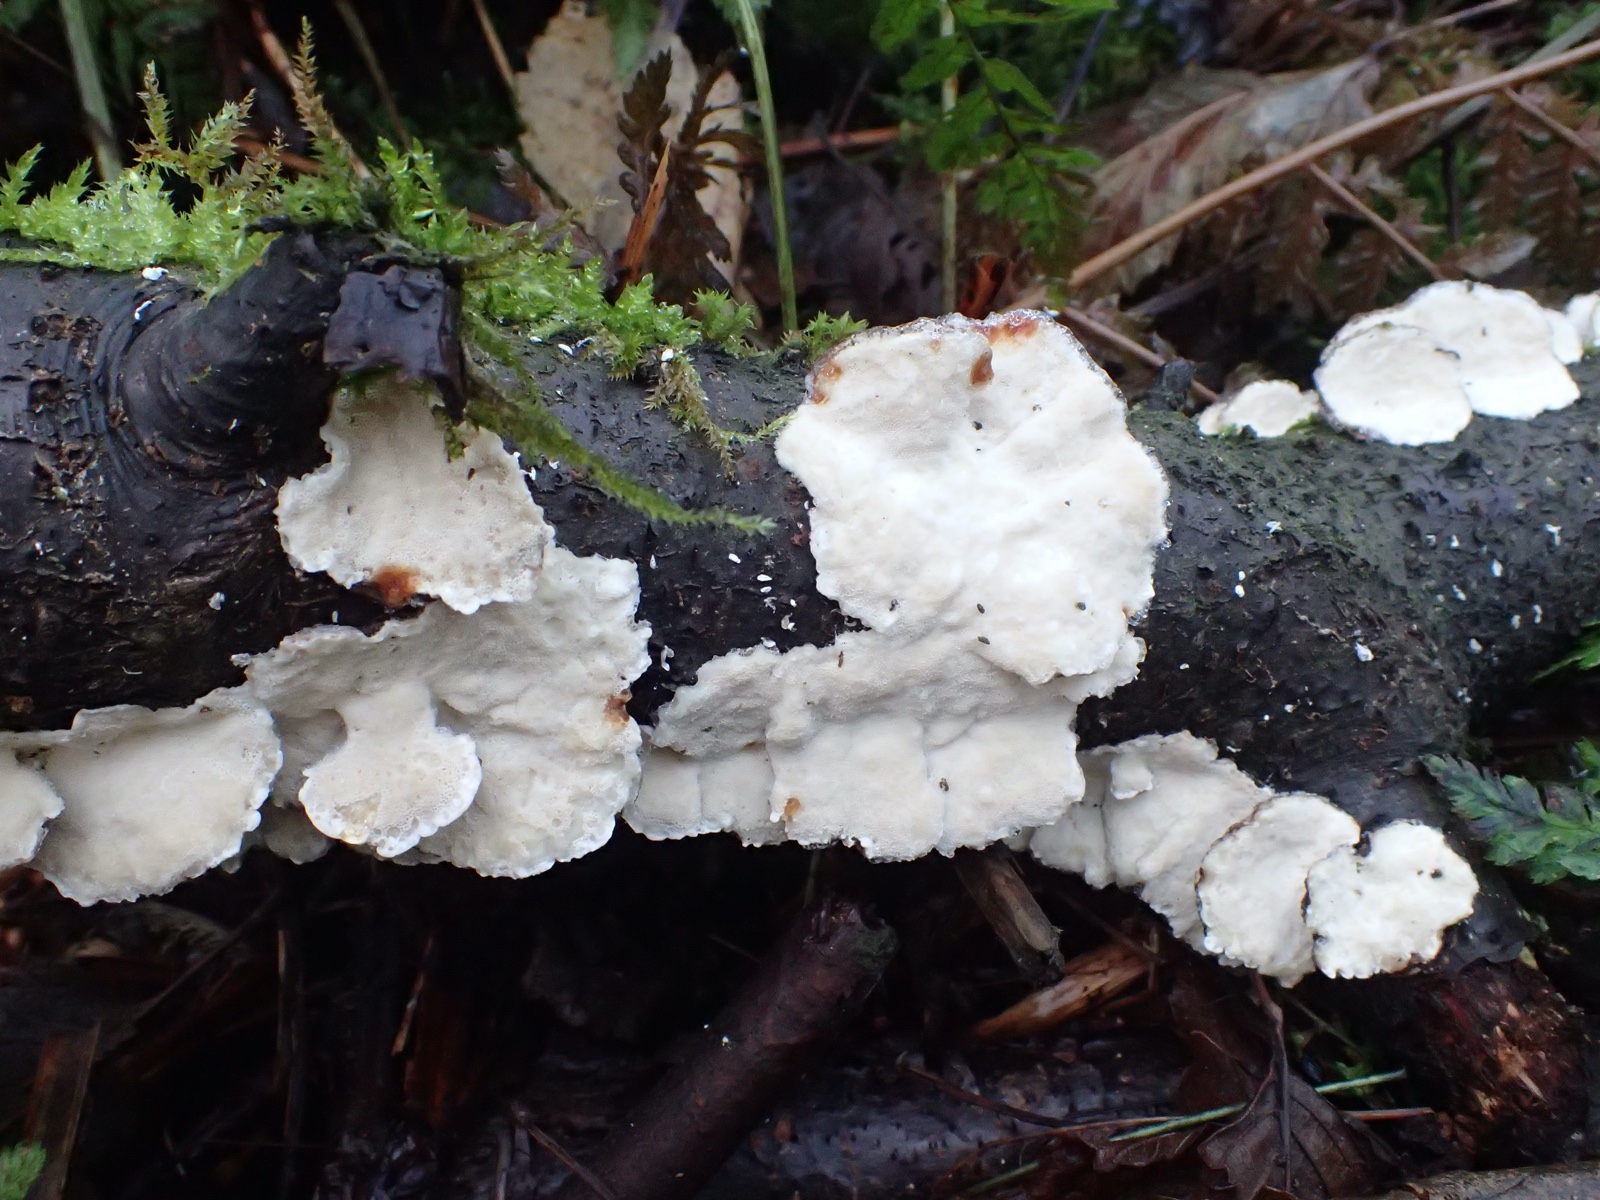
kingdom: Fungi
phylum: Basidiomycota
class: Agaricomycetes
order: Polyporales
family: Polyporaceae
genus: Trametes
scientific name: Trametes versicolor
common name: broget læderporesvamp
